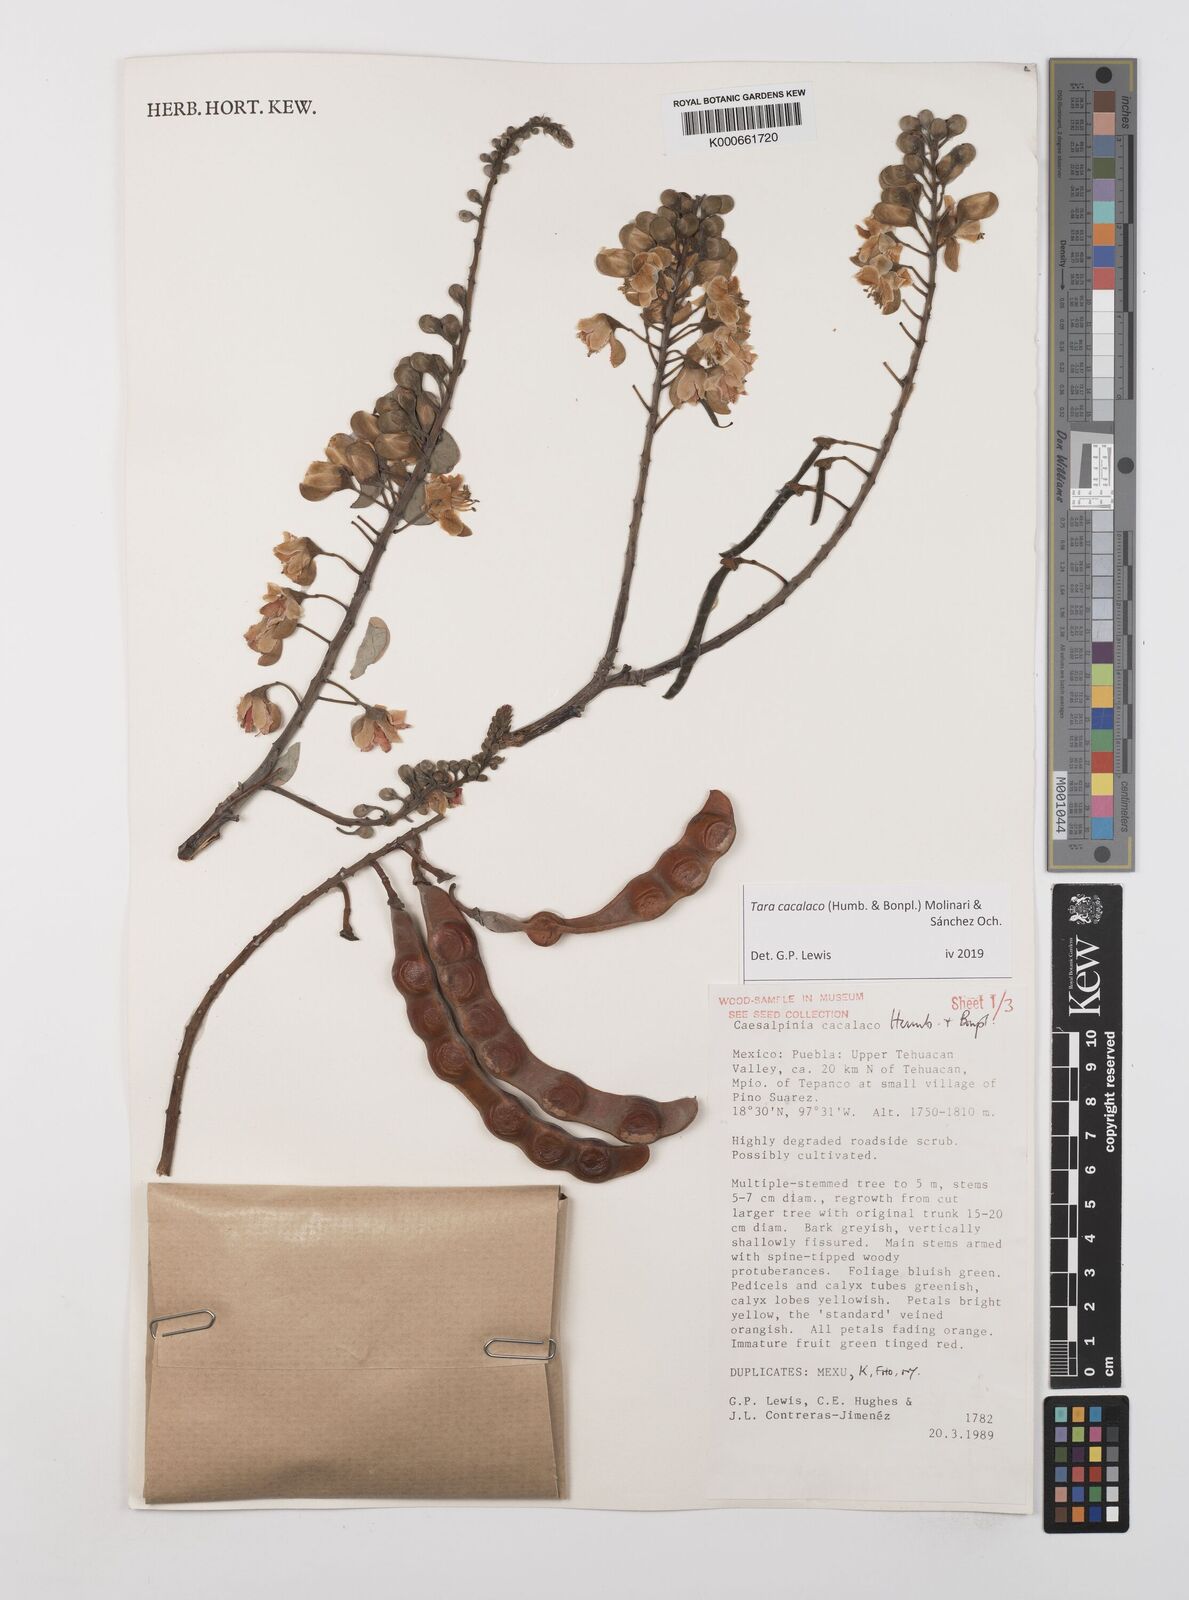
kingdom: Plantae
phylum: Tracheophyta
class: Magnoliopsida
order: Fabales
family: Fabaceae
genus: Tara
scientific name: Tara cacalaco
